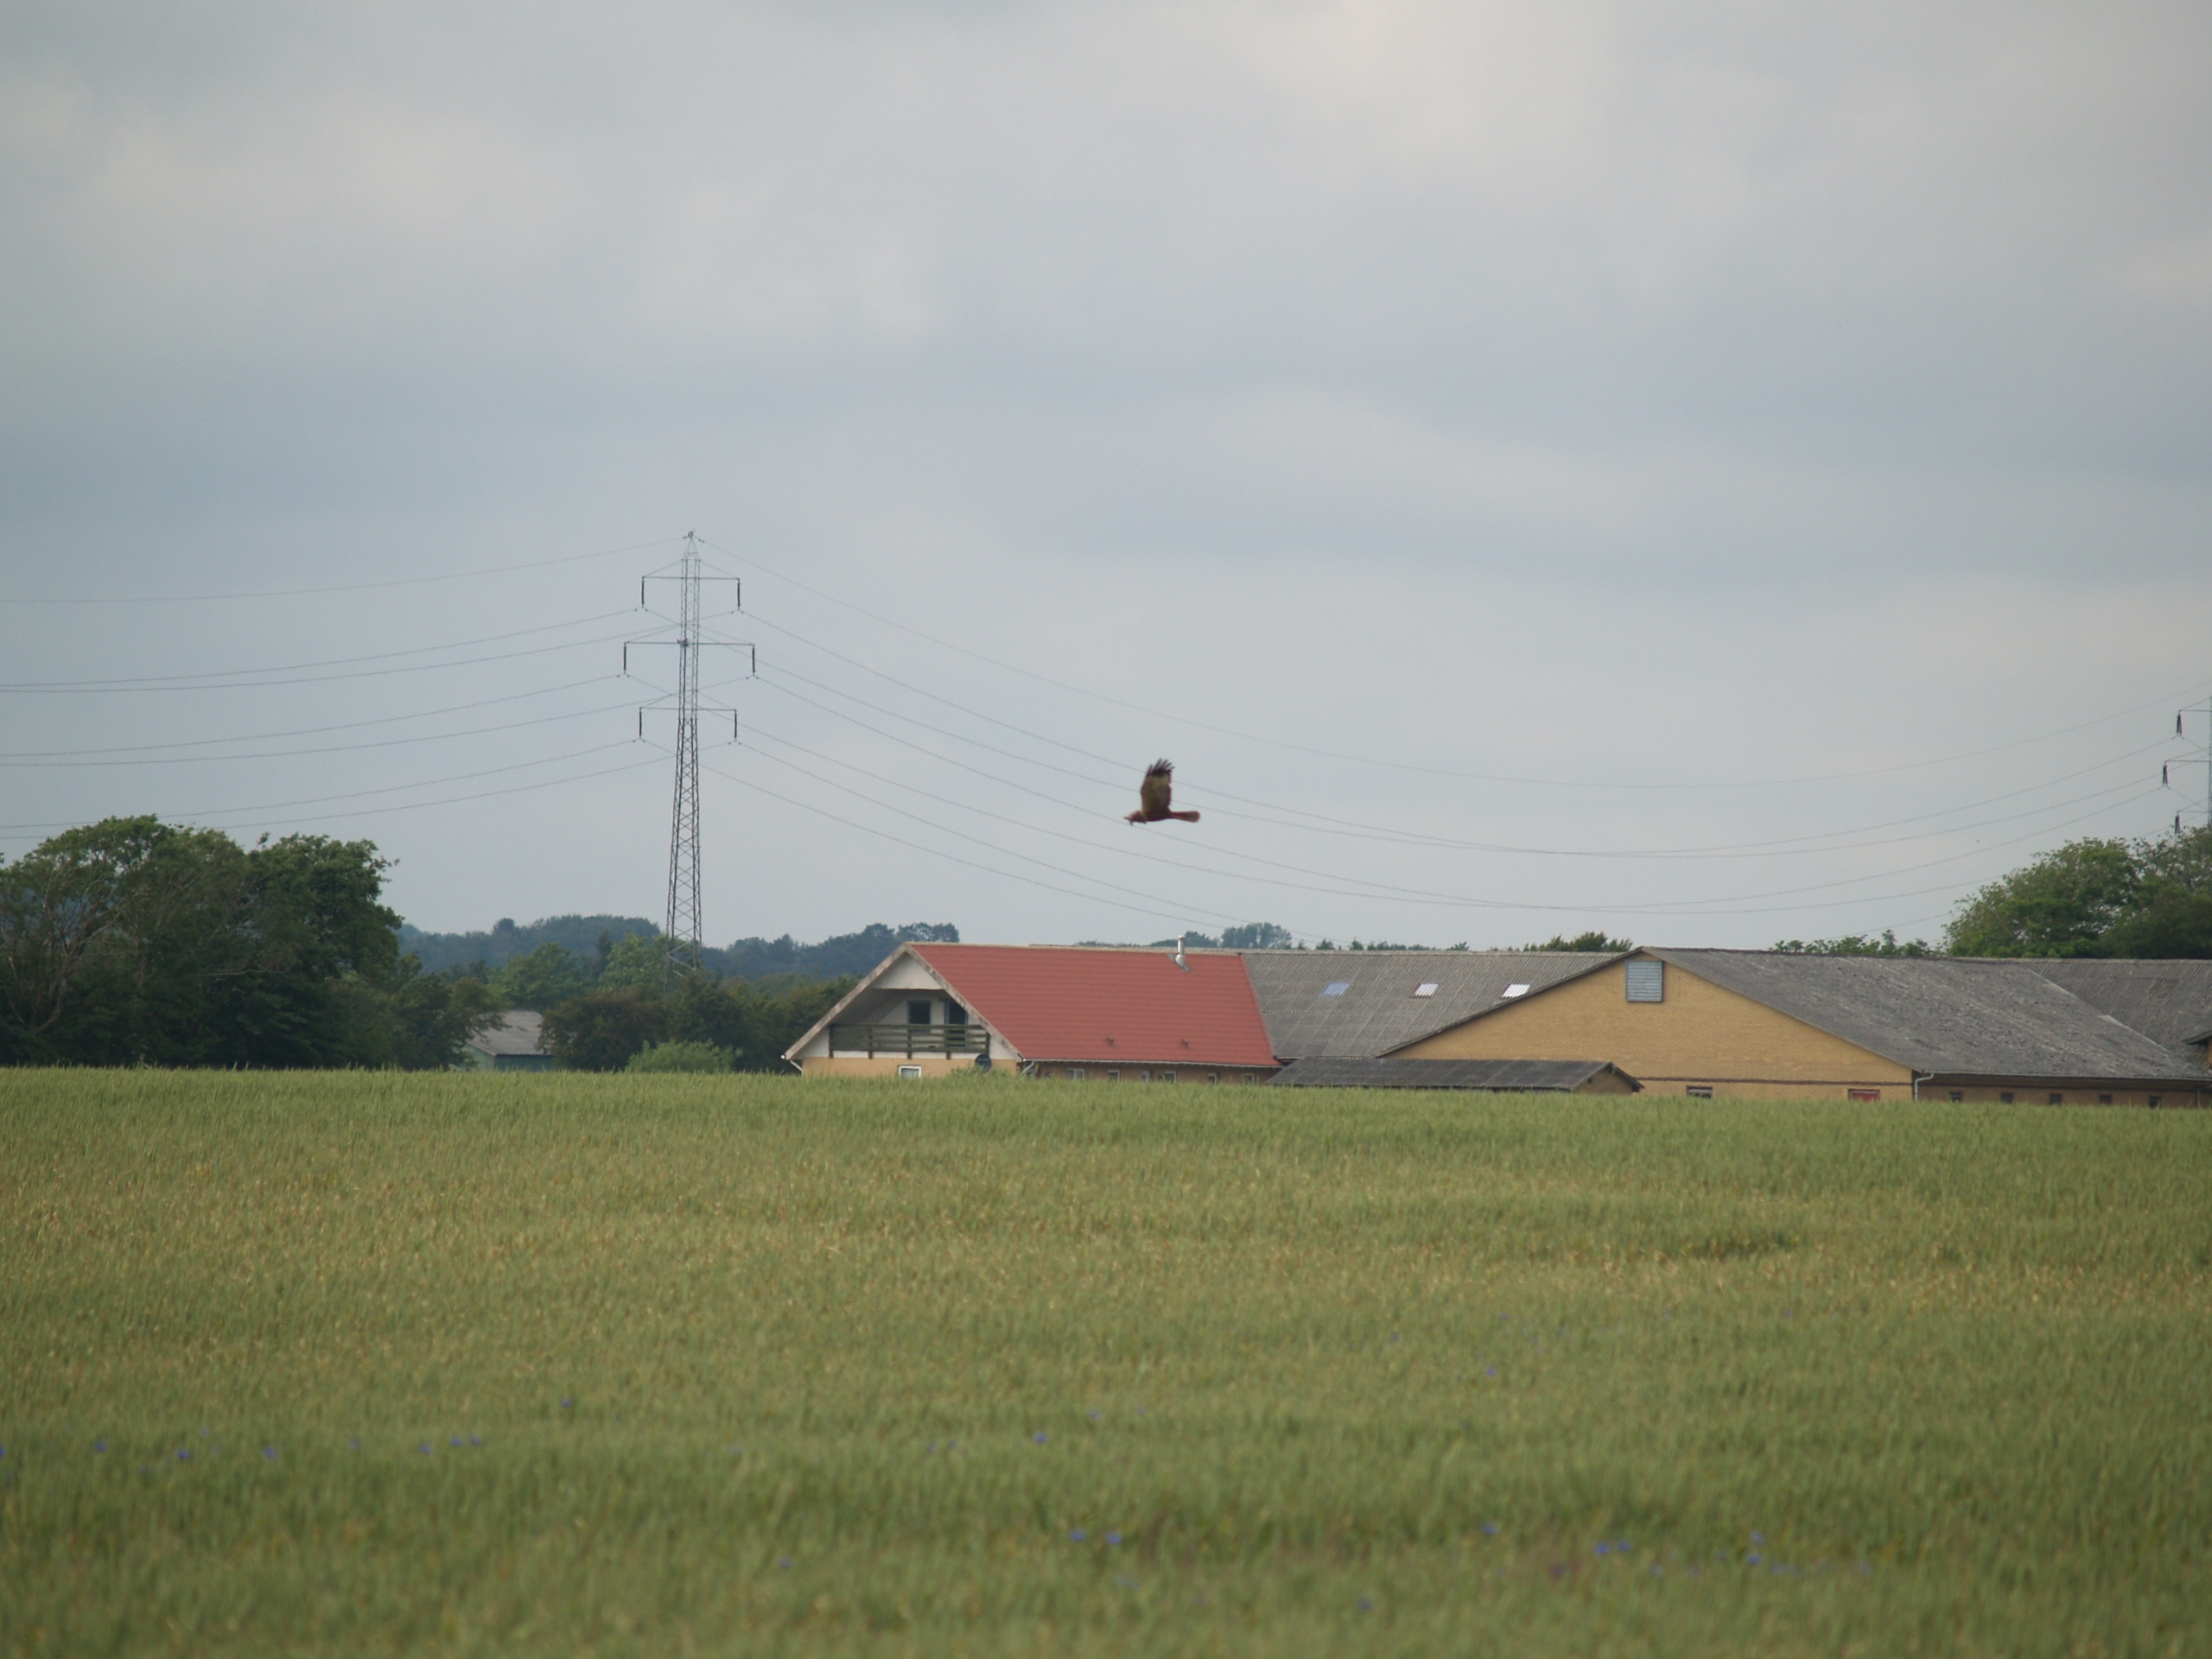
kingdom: Animalia
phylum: Chordata
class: Aves
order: Accipitriformes
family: Accipitridae
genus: Circus
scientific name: Circus aeruginosus
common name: Rørhøg
